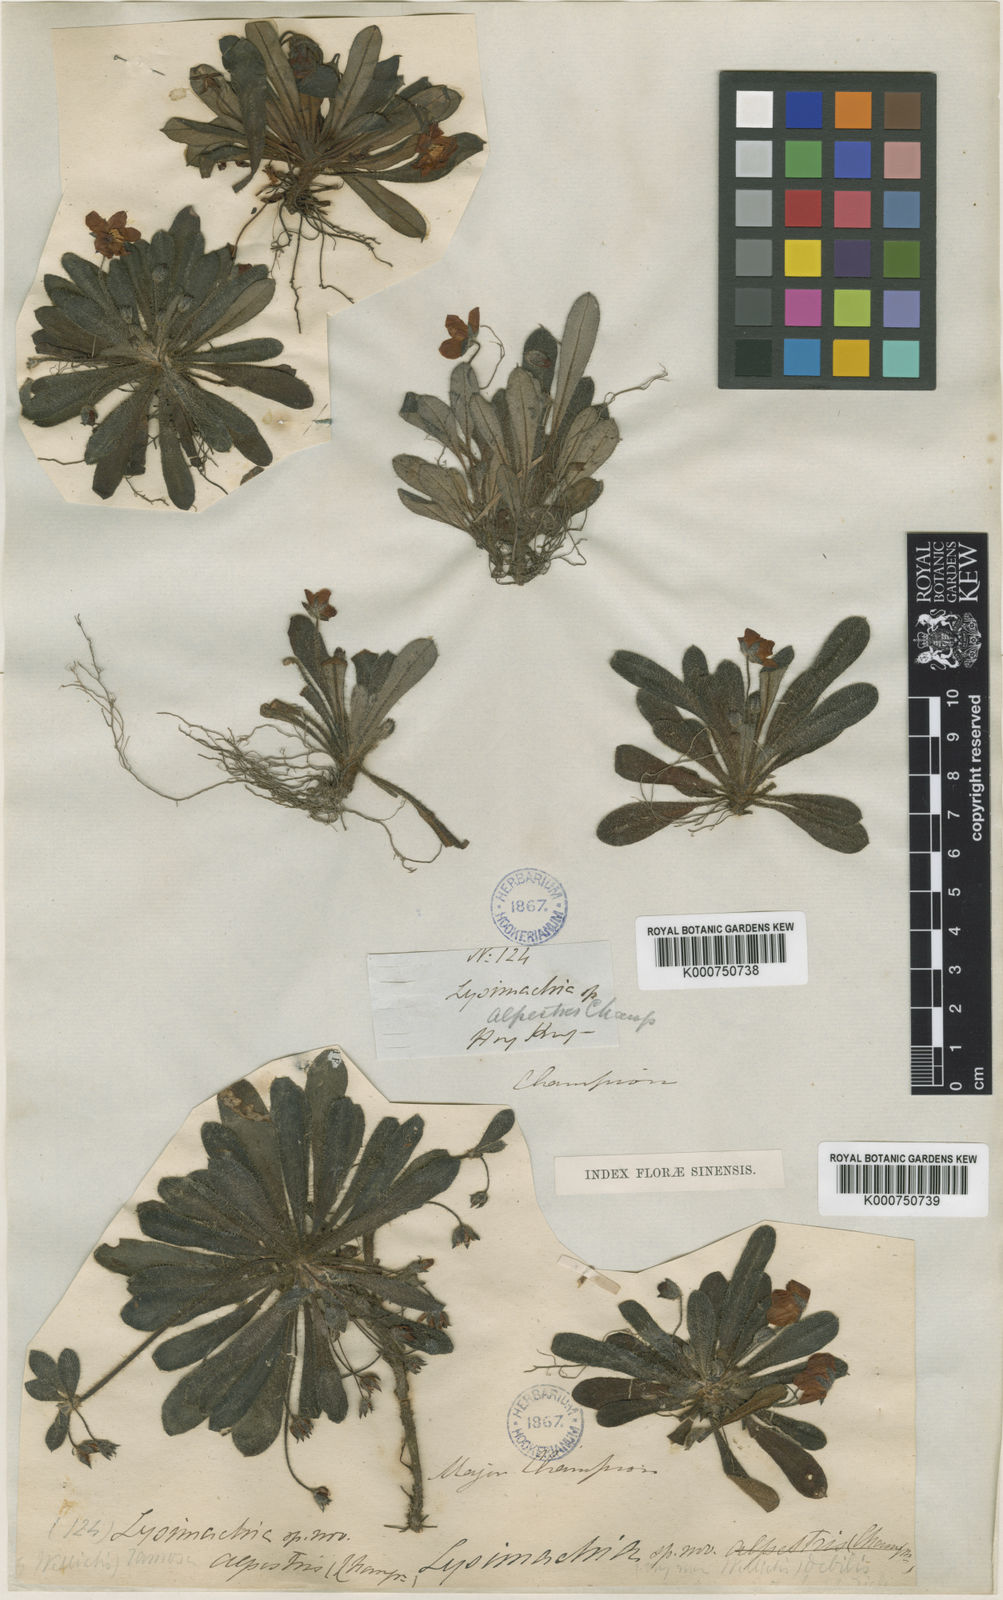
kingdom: Plantae
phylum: Tracheophyta
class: Magnoliopsida
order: Ericales
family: Primulaceae
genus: Lysimachia
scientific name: Lysimachia alpestris
